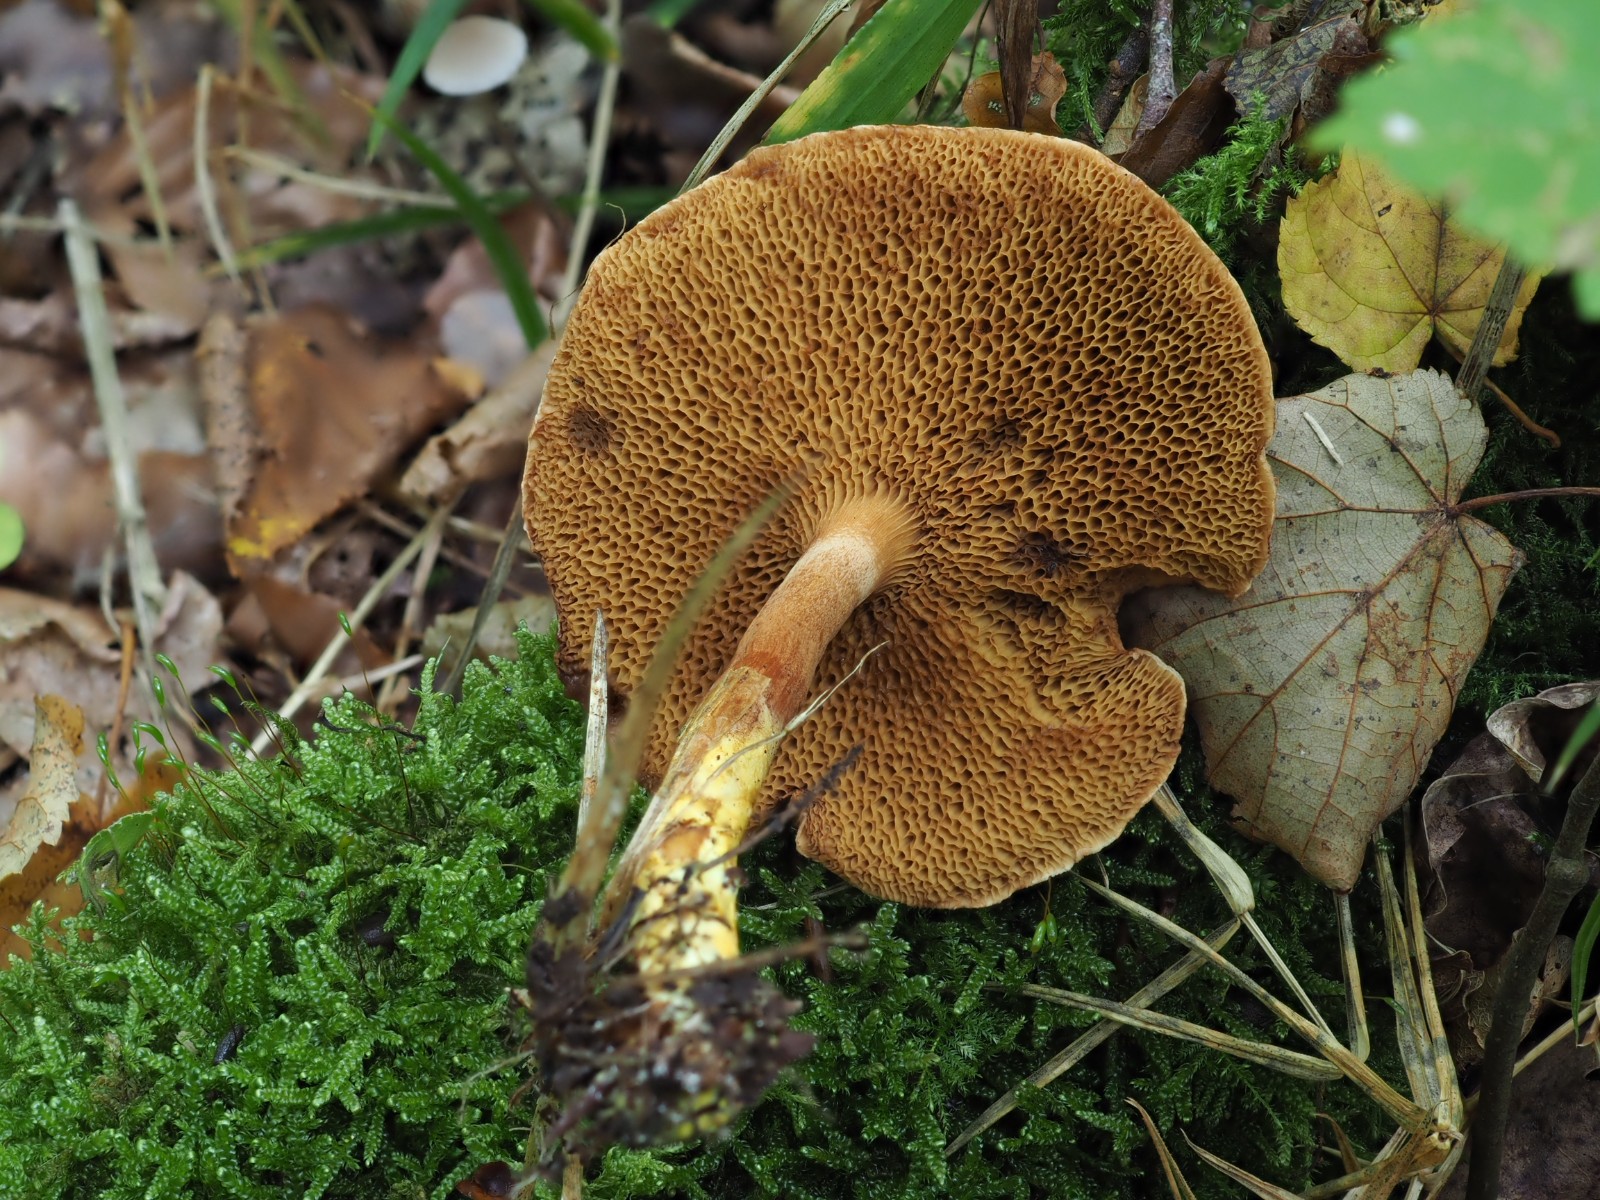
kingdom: Fungi
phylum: Basidiomycota
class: Agaricomycetes
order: Boletales
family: Boletaceae
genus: Chalciporus
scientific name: Chalciporus piperatus
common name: peberrørhat
